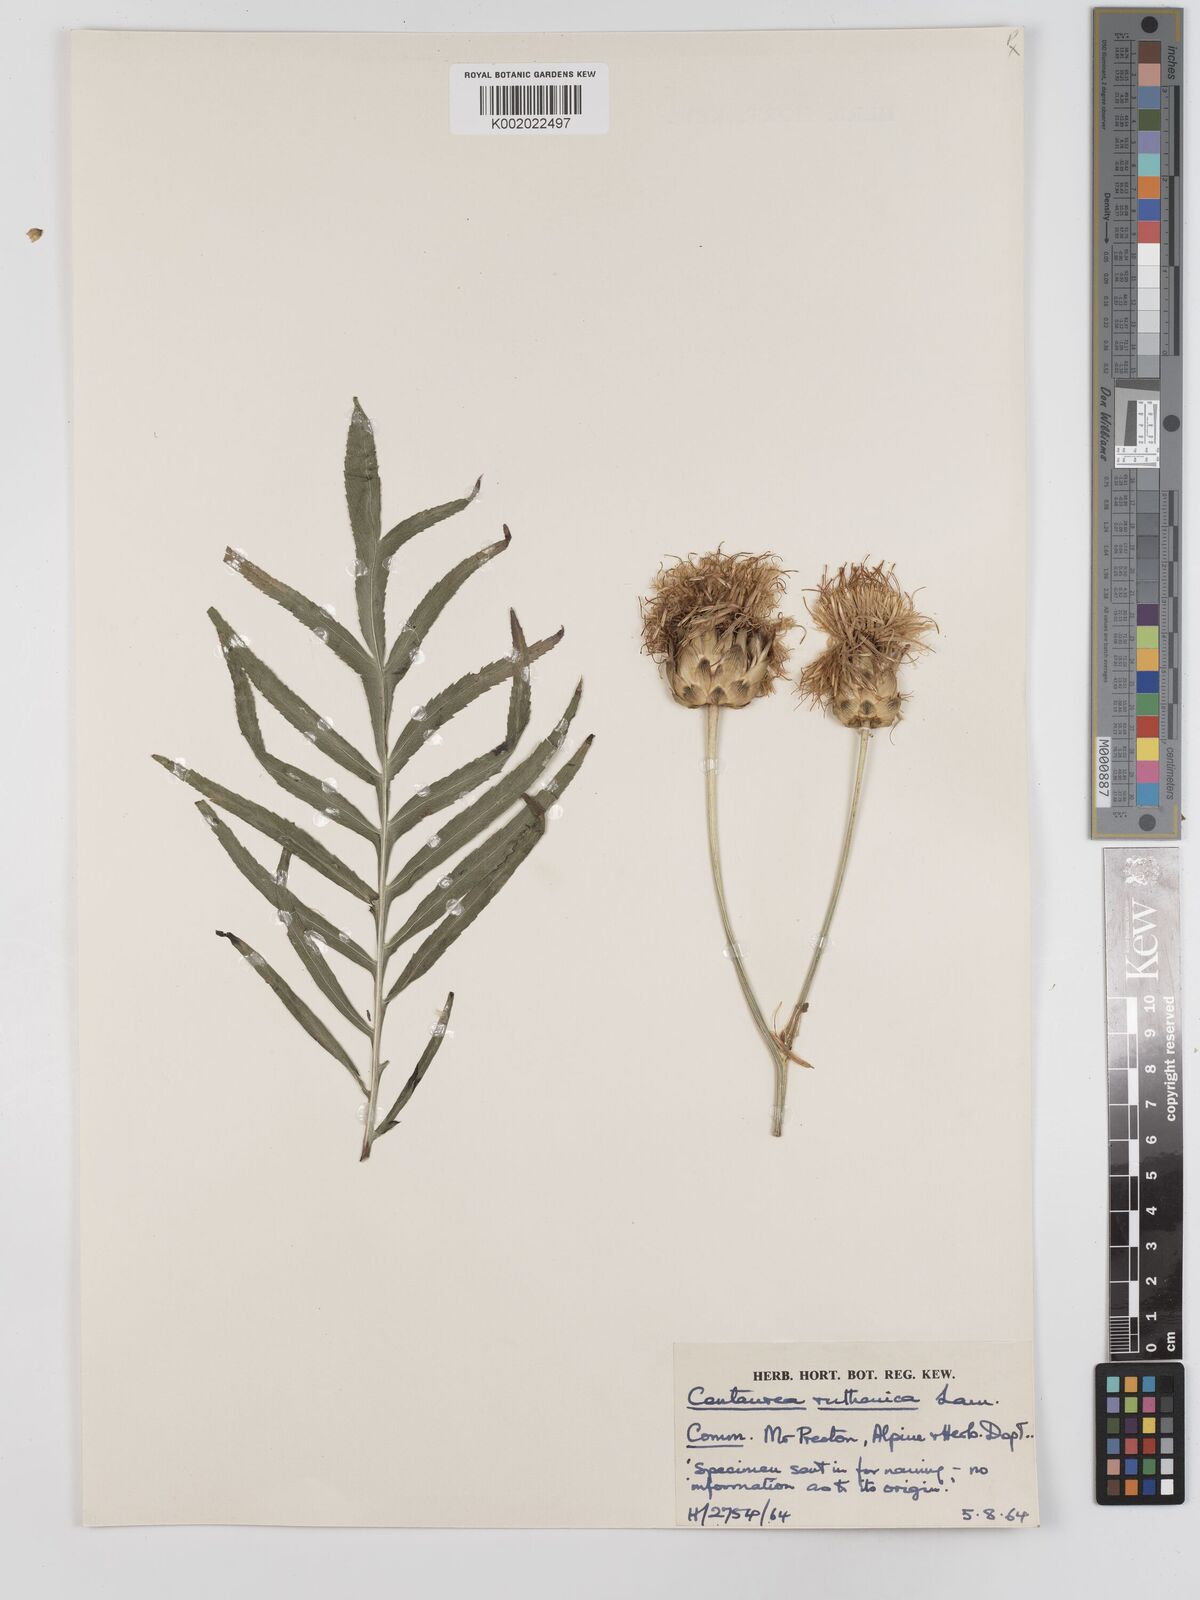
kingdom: Plantae
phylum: Tracheophyta
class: Magnoliopsida
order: Asterales
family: Asteraceae
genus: Rhaponticoides
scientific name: Rhaponticoides ruthenica
